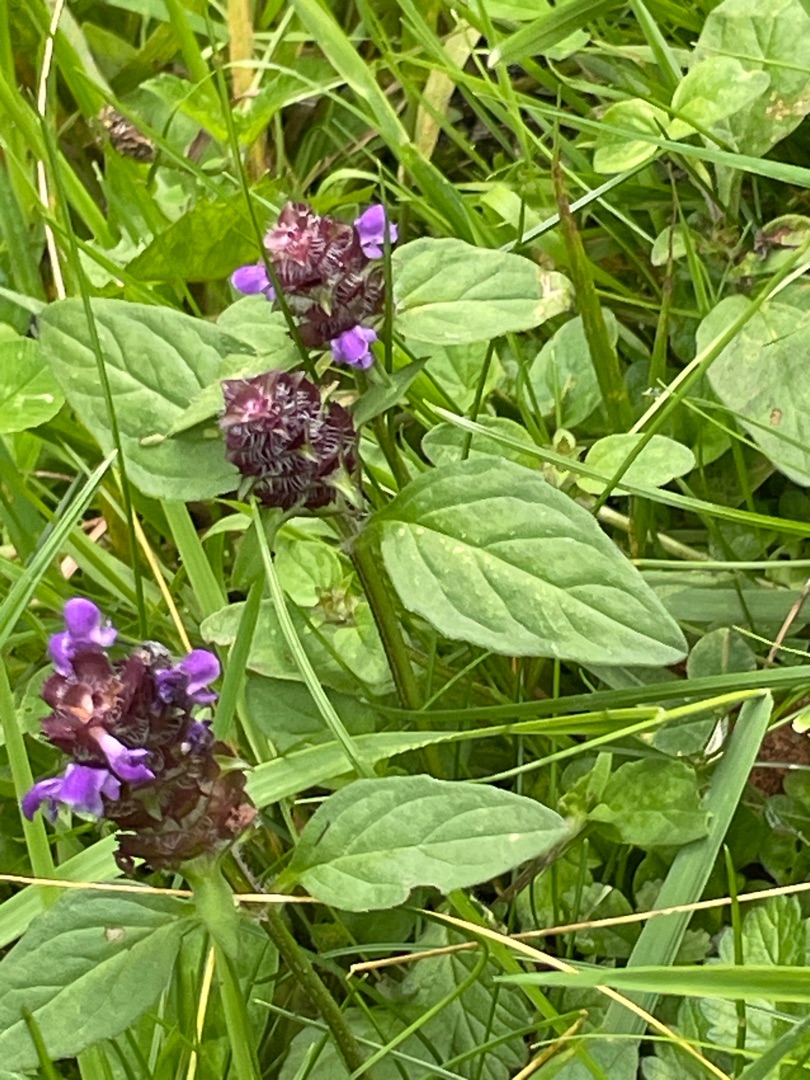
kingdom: Plantae
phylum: Tracheophyta
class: Magnoliopsida
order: Lamiales
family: Lamiaceae
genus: Prunella
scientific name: Prunella vulgaris
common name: Almindelig brunelle
